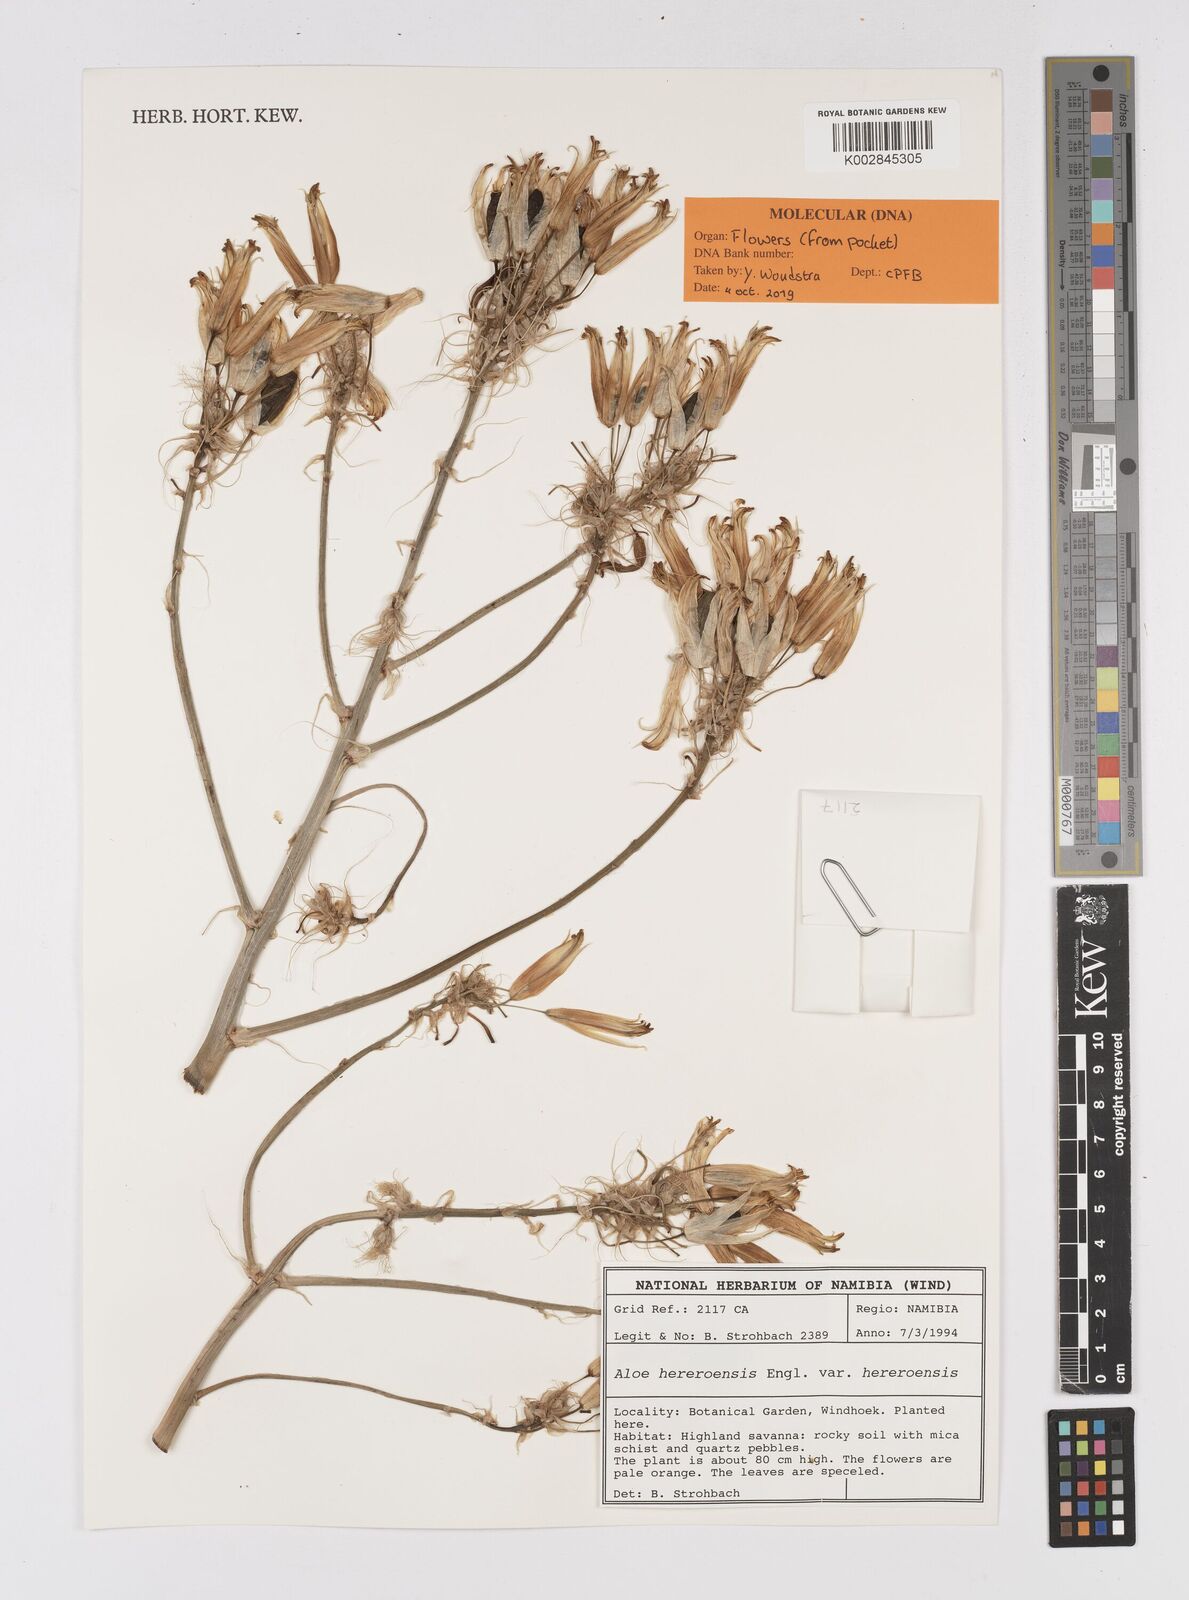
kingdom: Plantae
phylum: Tracheophyta
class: Liliopsida
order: Asparagales
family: Asphodelaceae
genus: Aloe
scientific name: Aloe hereroensis
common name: Herero aloe
